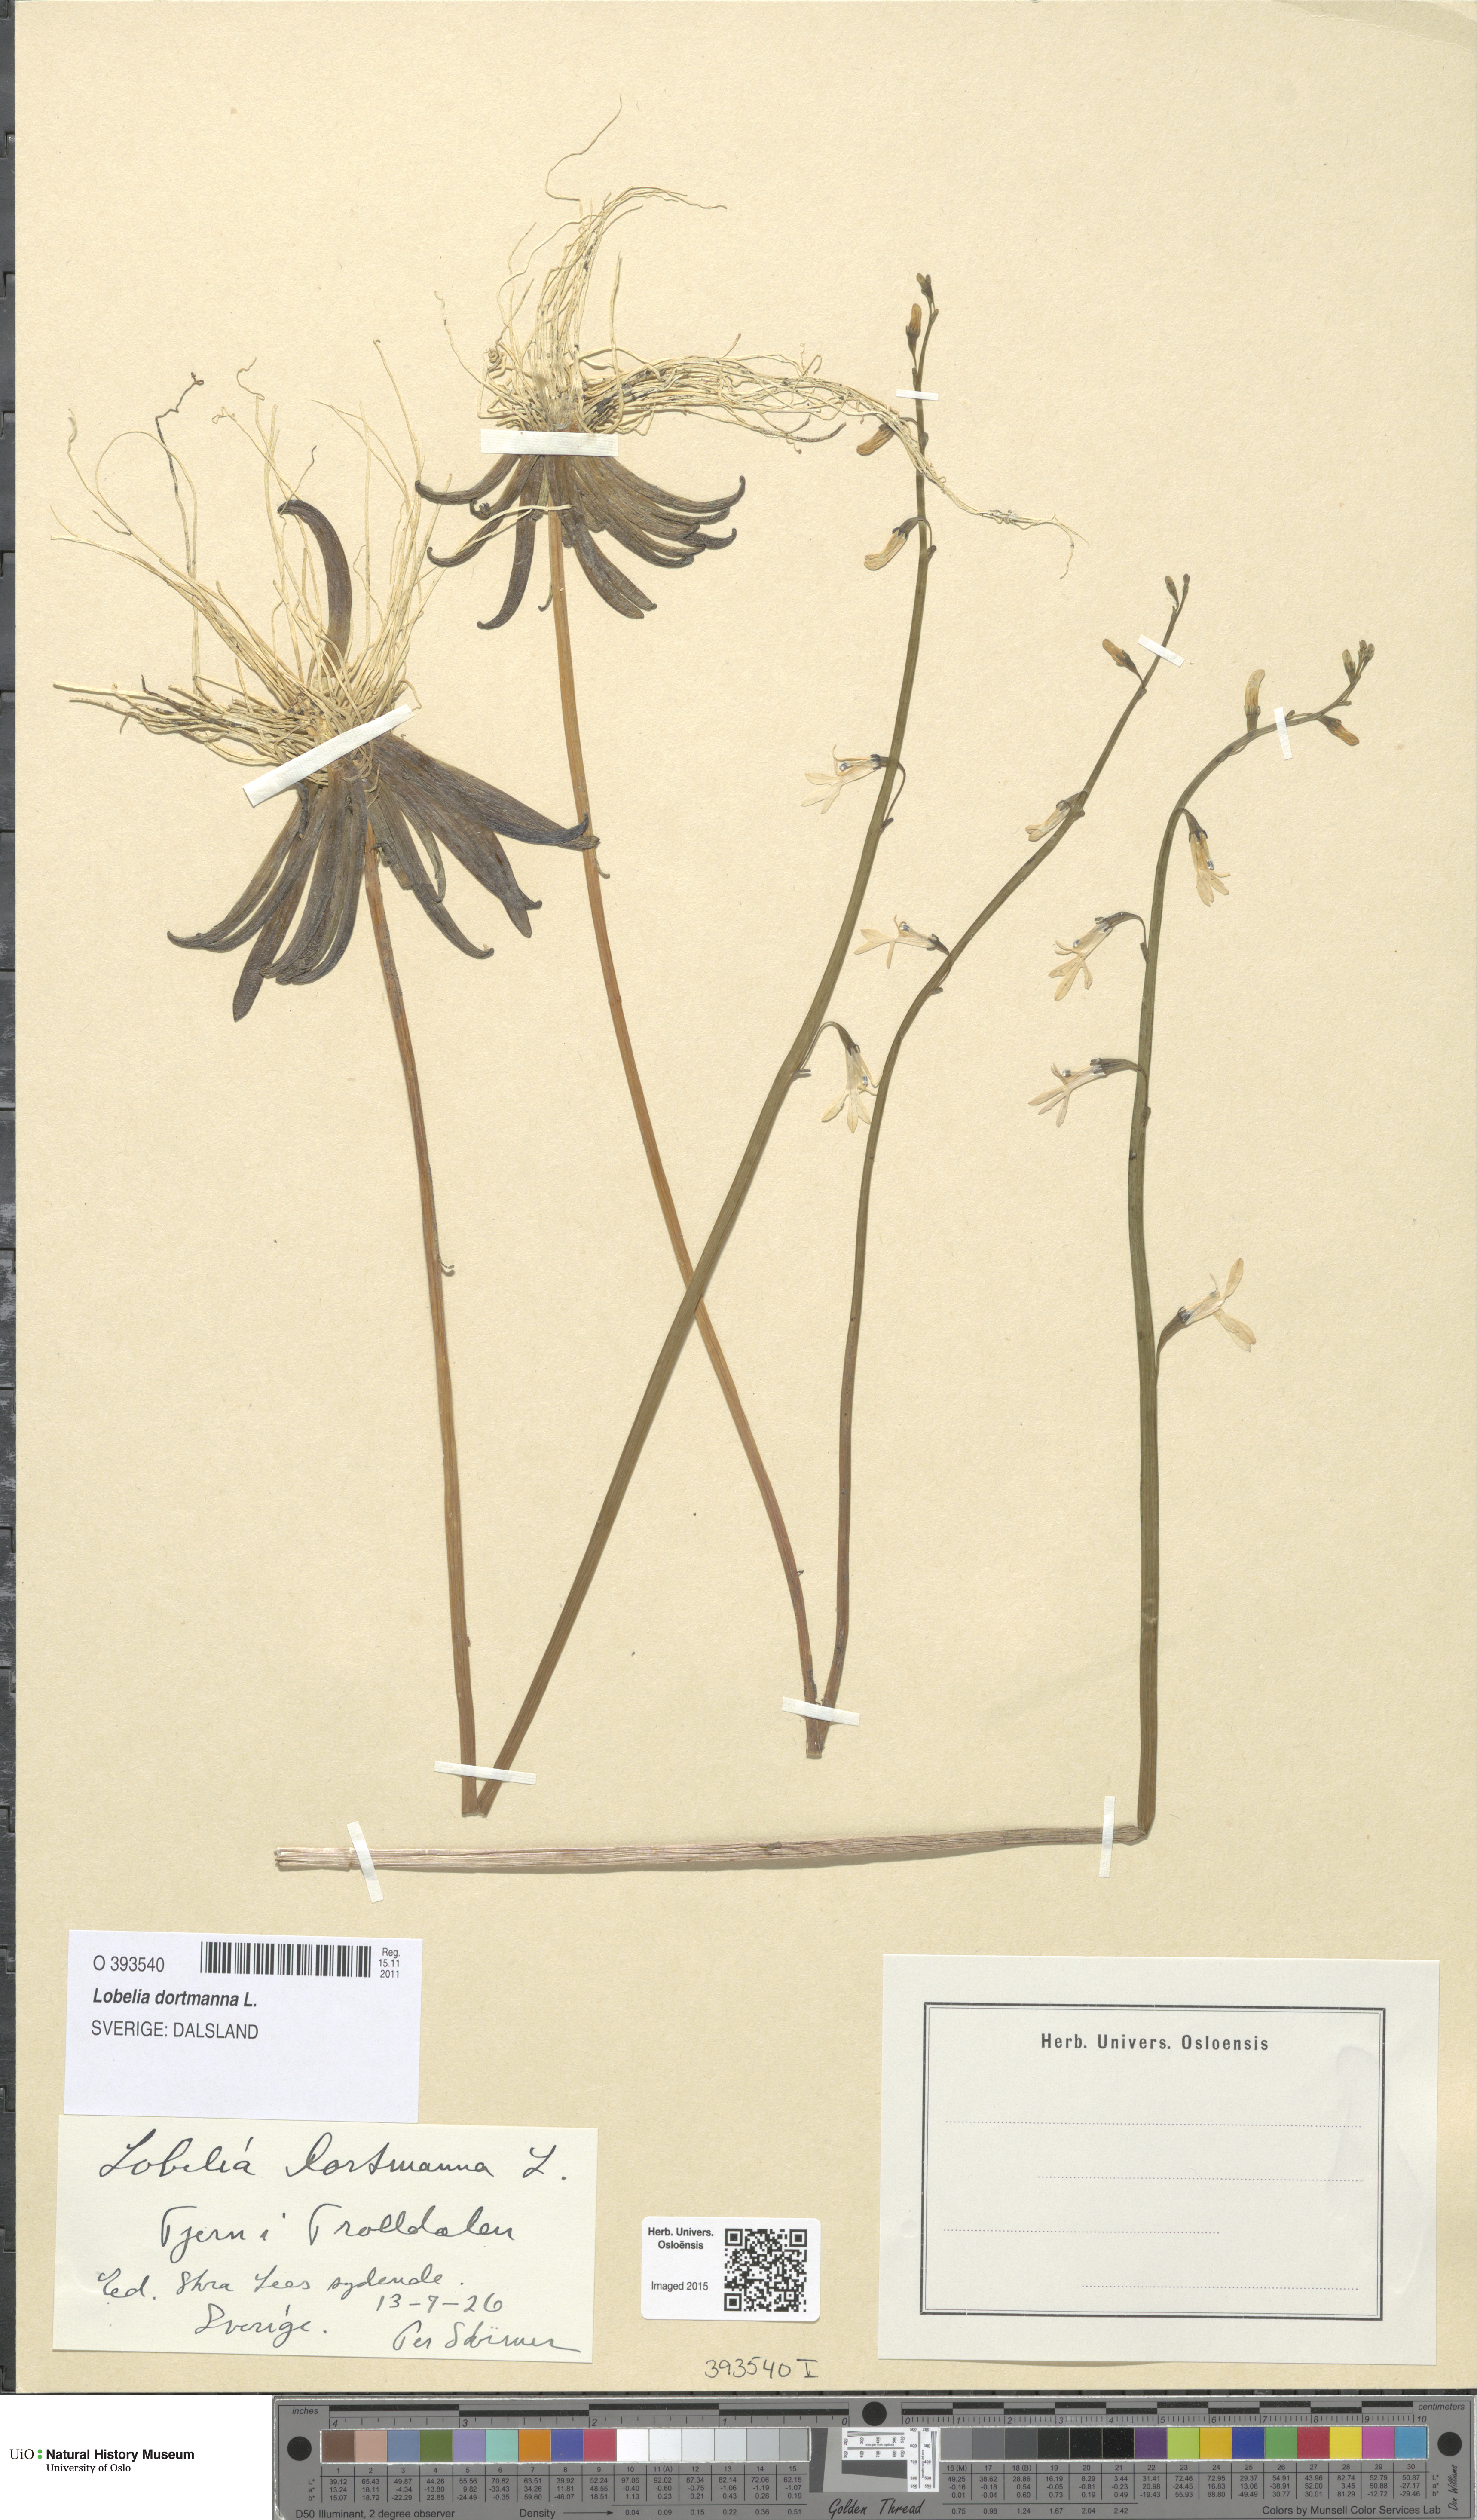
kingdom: Plantae
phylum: Tracheophyta
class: Magnoliopsida
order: Asterales
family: Campanulaceae
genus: Lobelia
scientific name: Lobelia dortmanna
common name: Water lobelia
